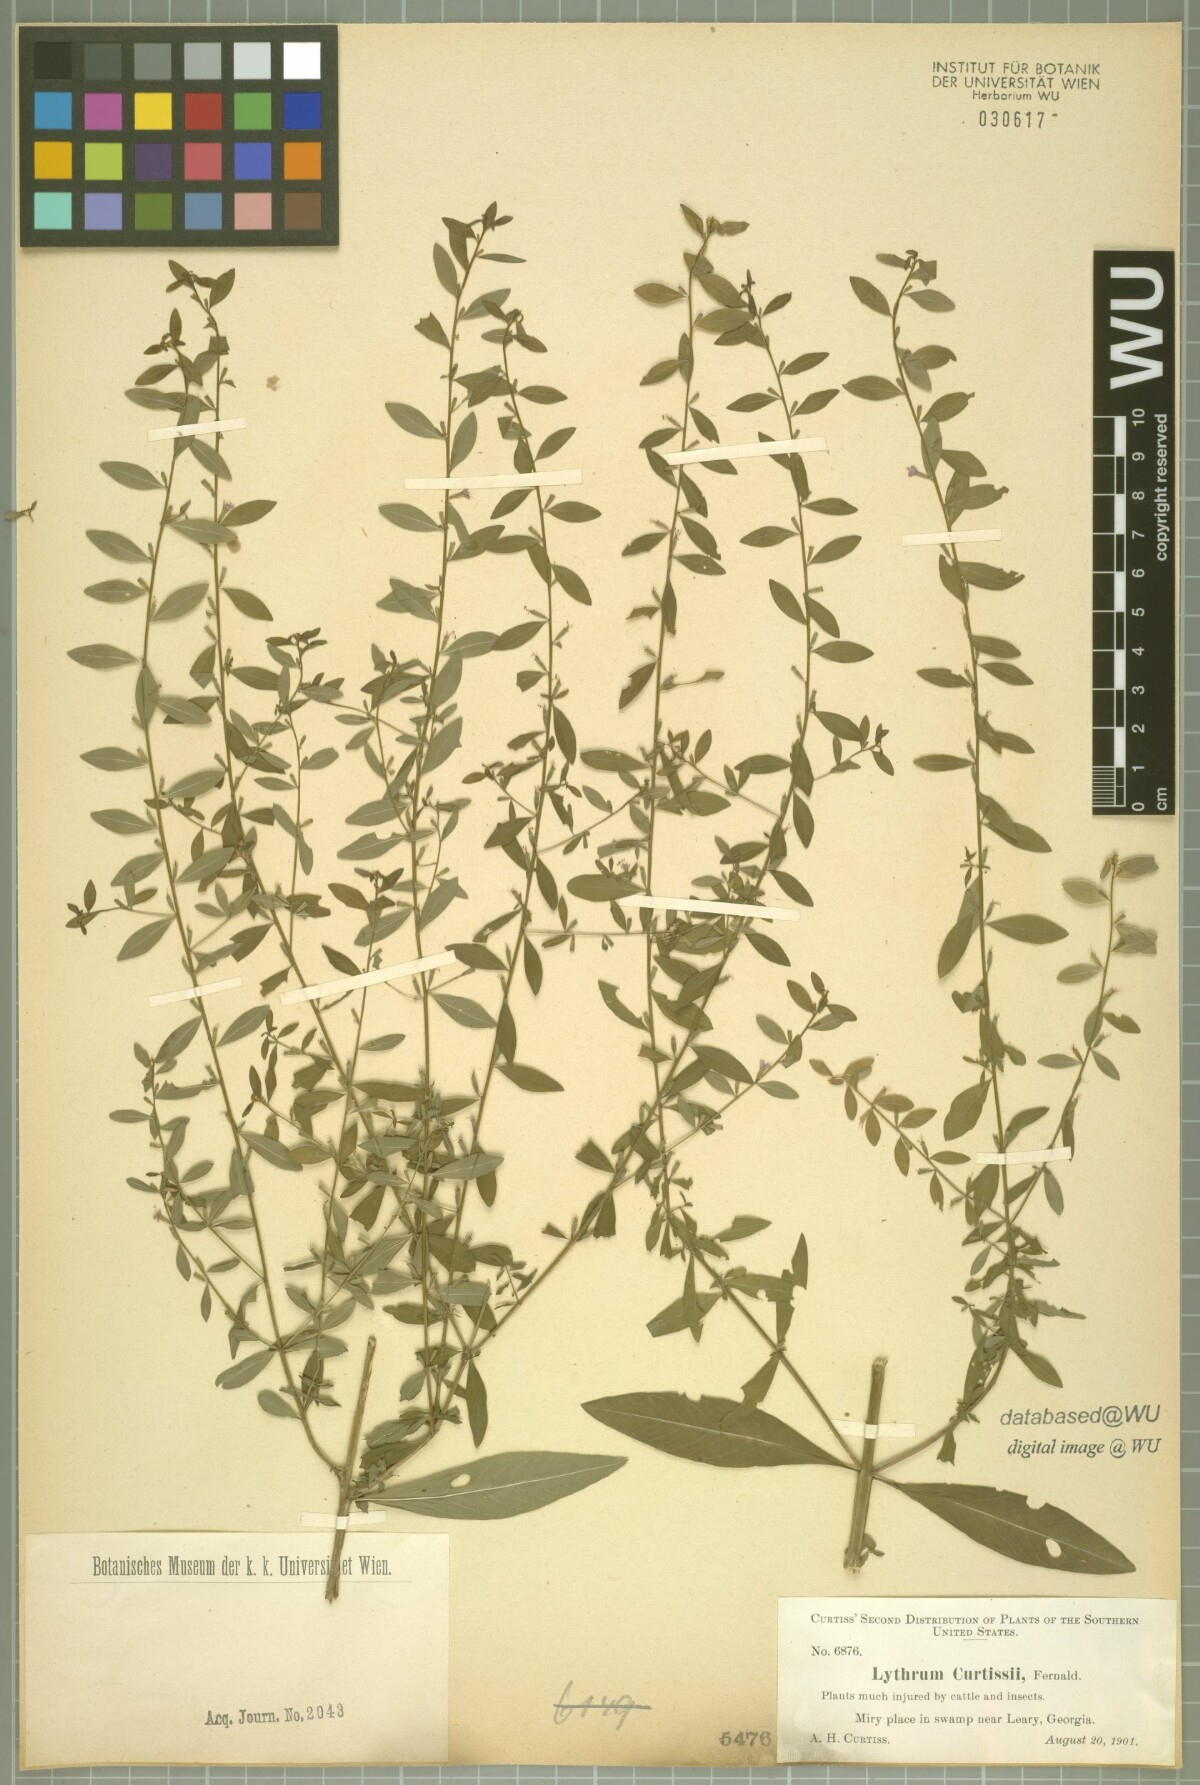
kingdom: Plantae
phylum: Tracheophyta
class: Magnoliopsida
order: Myrtales
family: Lythraceae
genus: Lythrum
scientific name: Lythrum curtissii
